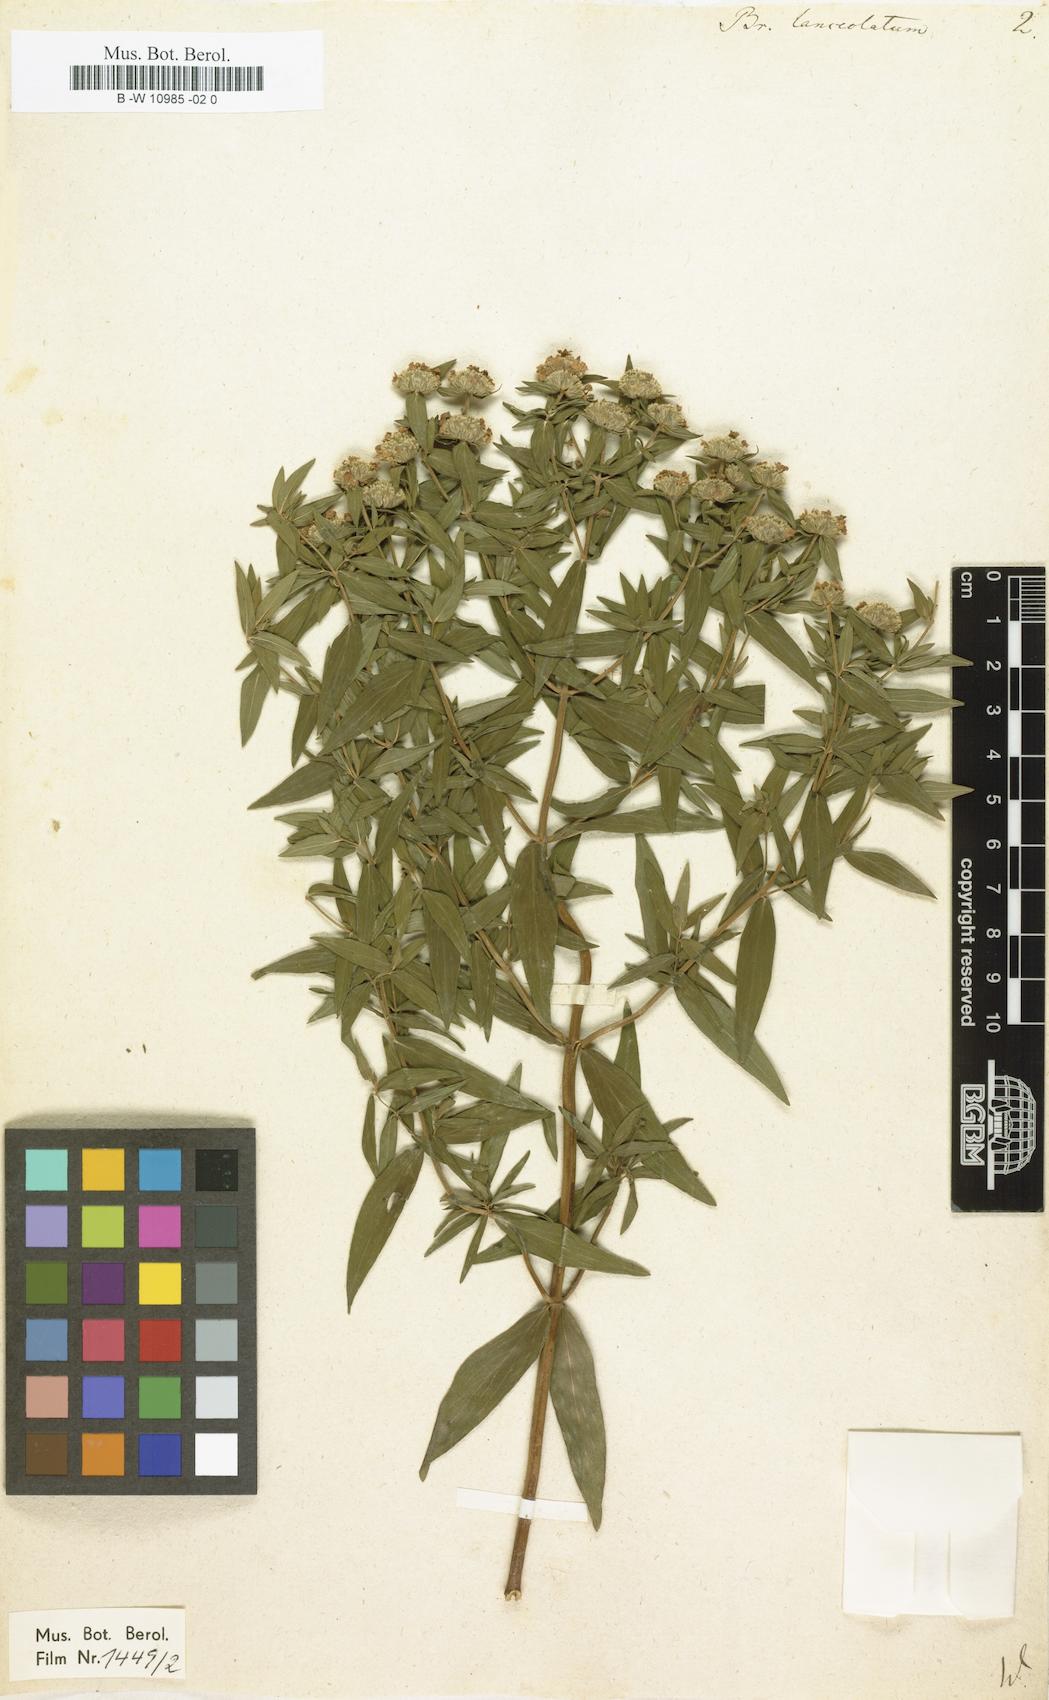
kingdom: Plantae
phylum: Tracheophyta
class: Magnoliopsida
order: Lamiales
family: Lamiaceae
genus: Pycnanthemum
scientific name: Pycnanthemum virginianum
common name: Virginia mountain-mint
